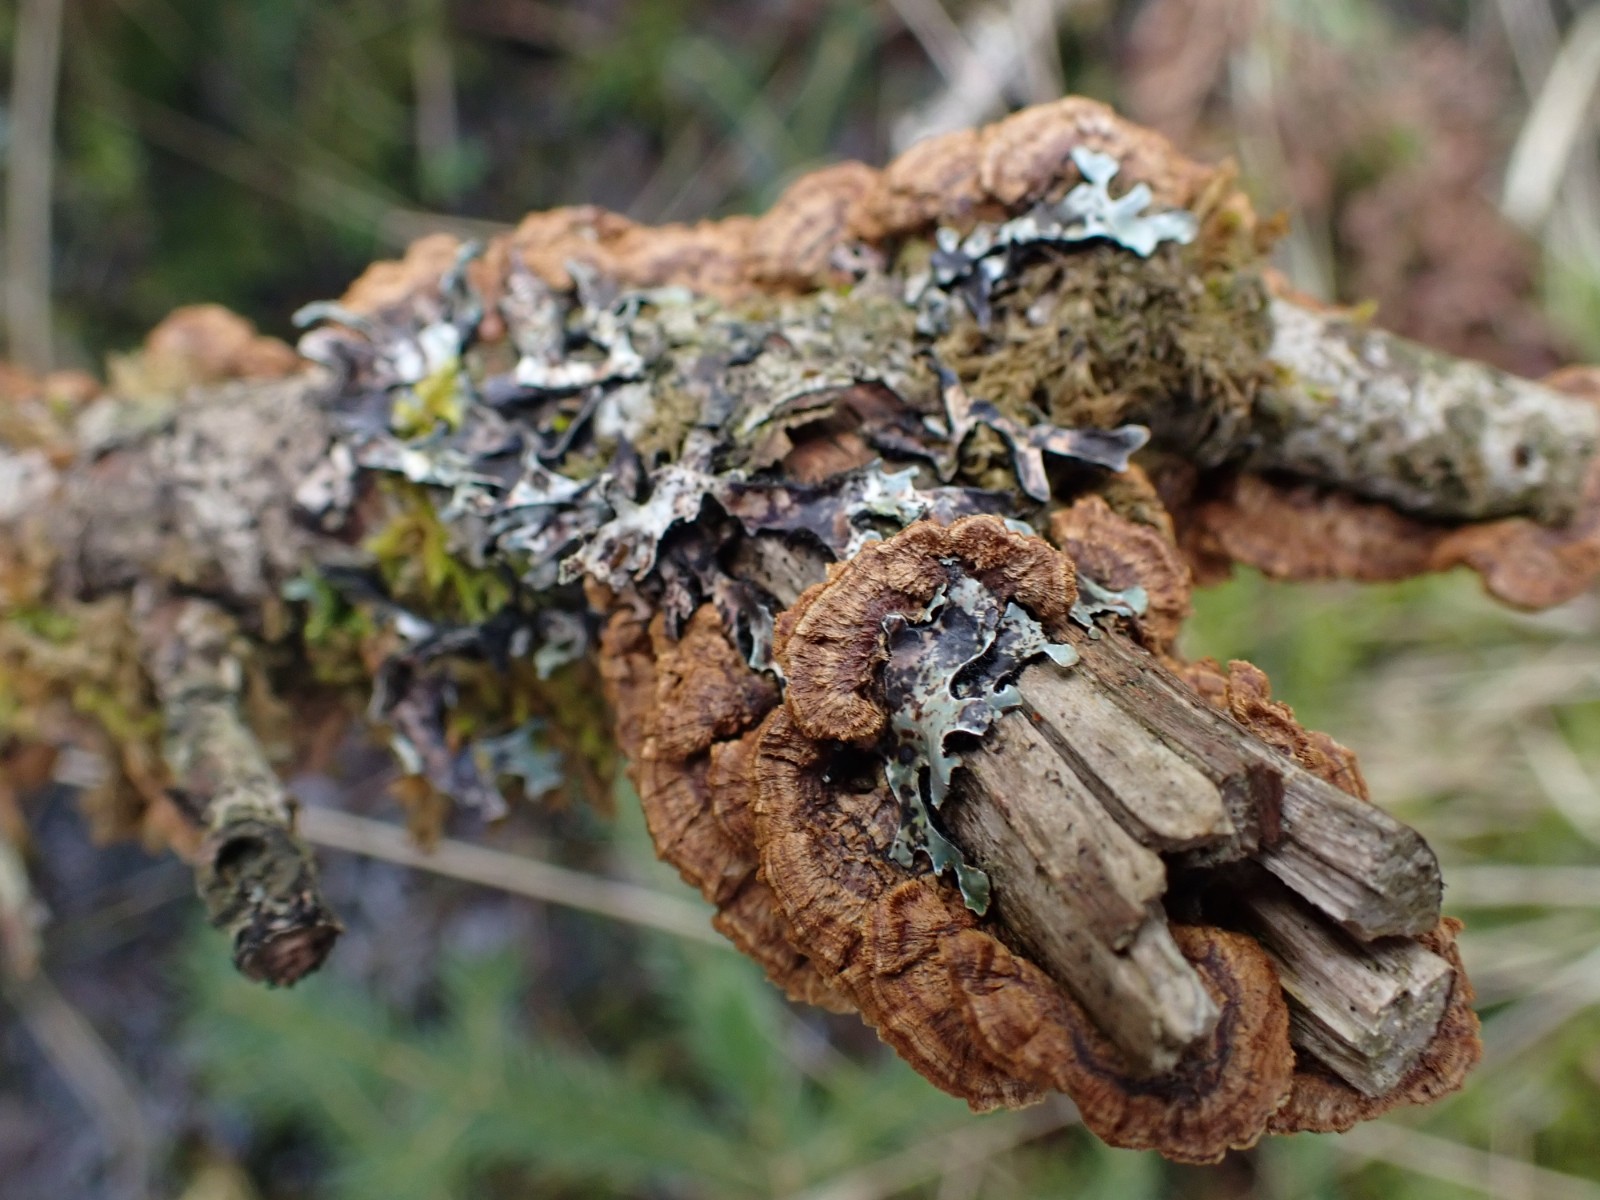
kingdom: Fungi
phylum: Basidiomycota
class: Agaricomycetes
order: Hymenochaetales
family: Hymenochaetaceae
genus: Hydnoporia
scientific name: Hydnoporia tabacina
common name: tobaksbrun ruslædersvamp
